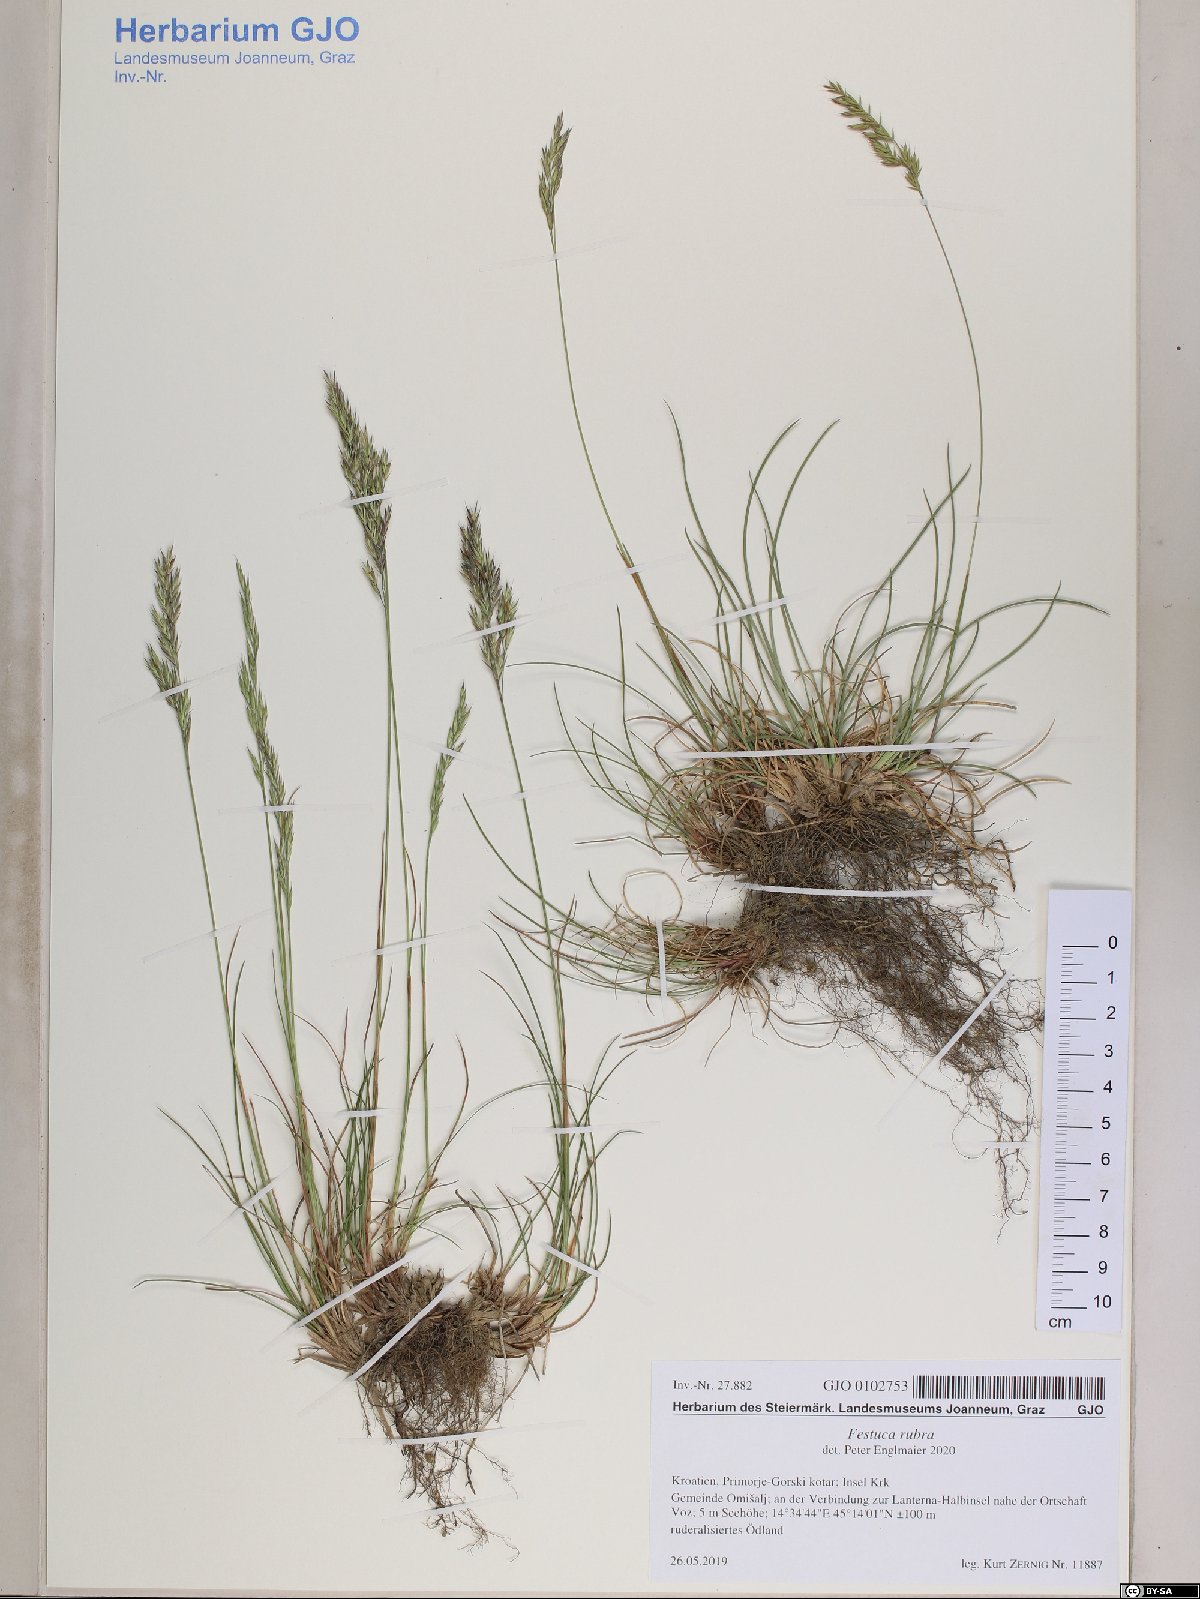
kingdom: Plantae
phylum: Tracheophyta
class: Liliopsida
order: Poales
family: Poaceae
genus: Festuca
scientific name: Festuca rubra
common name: Red fescue
